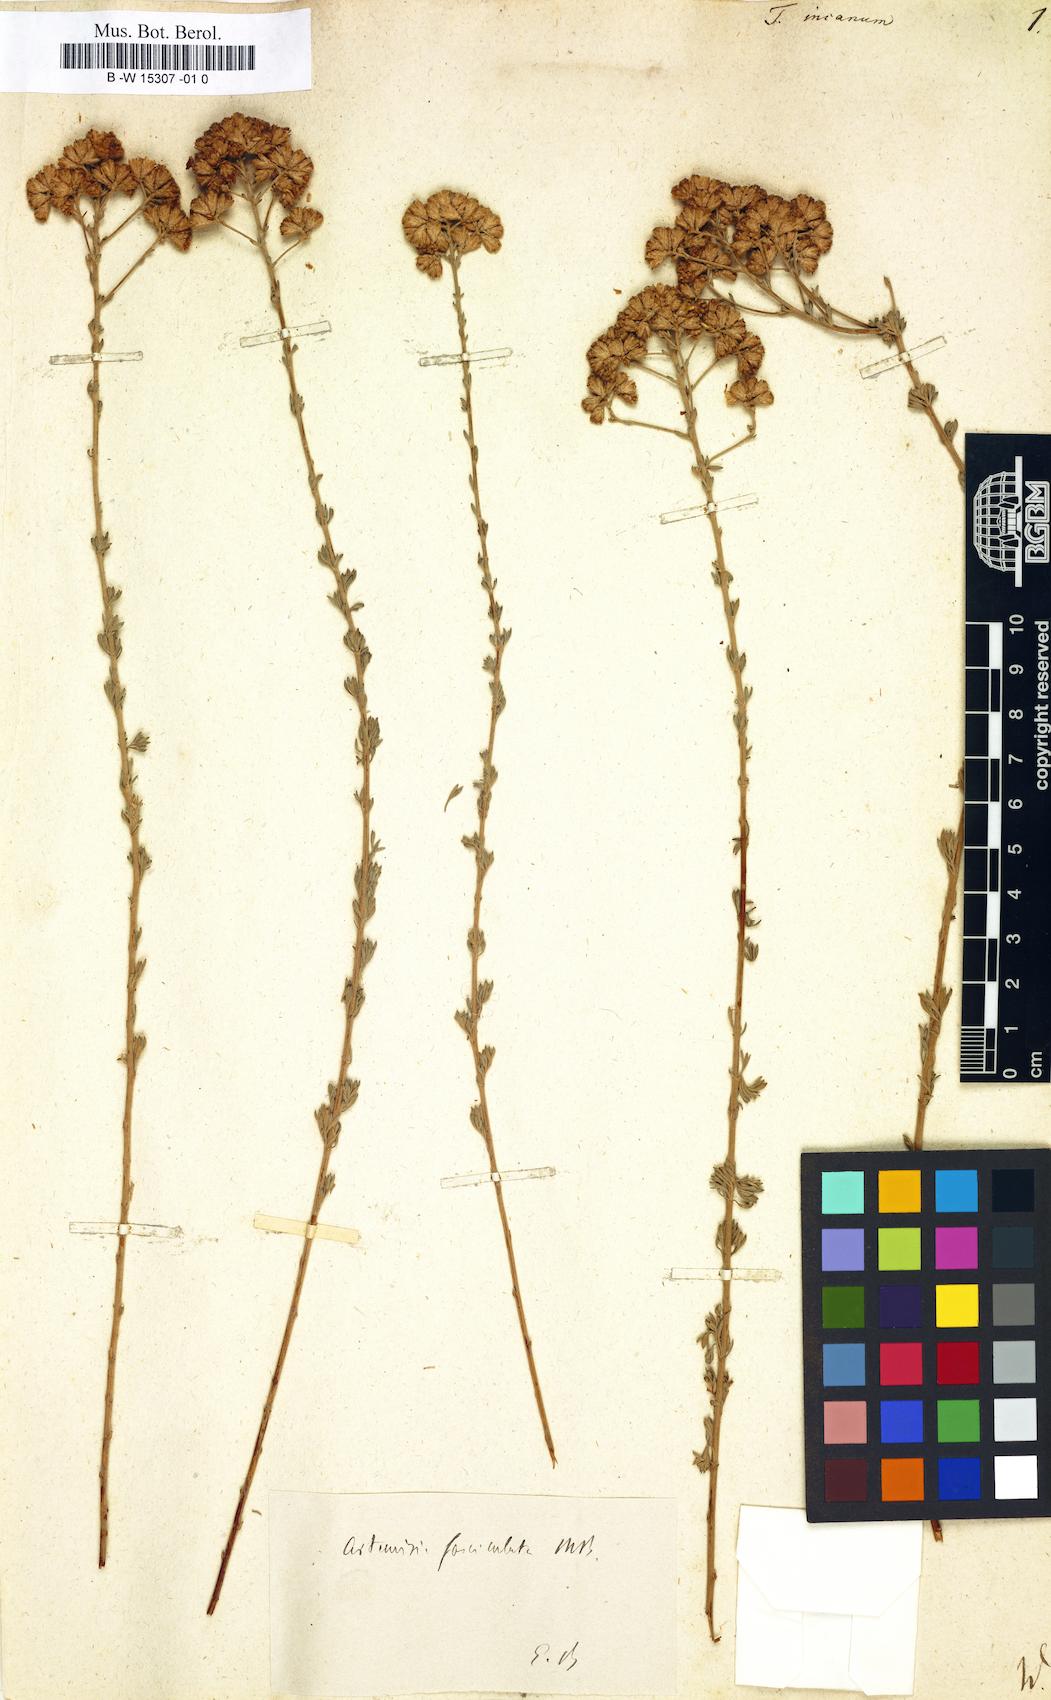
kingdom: Plantae
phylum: Tracheophyta
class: Magnoliopsida
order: Asterales
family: Asteraceae
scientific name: Asteraceae
